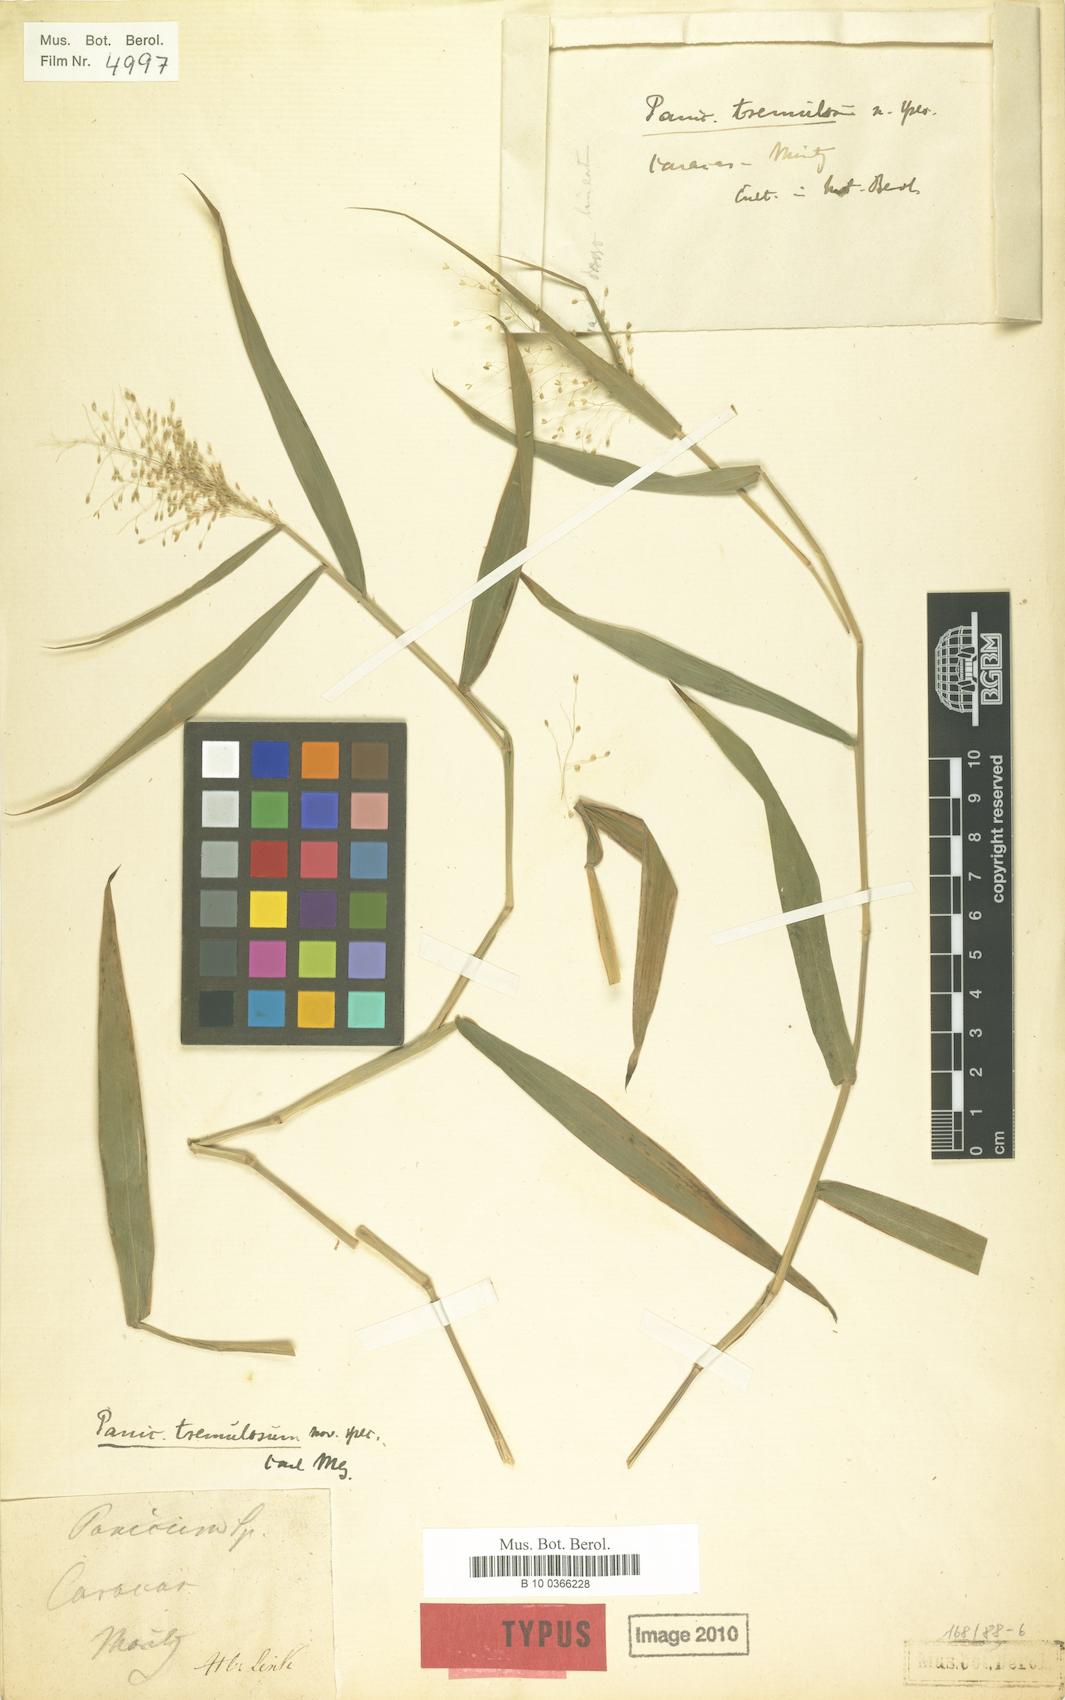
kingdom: Plantae
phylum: Tracheophyta
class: Liliopsida
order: Poales
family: Poaceae
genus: Dichanthelium
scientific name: Dichanthelium viscidellum
